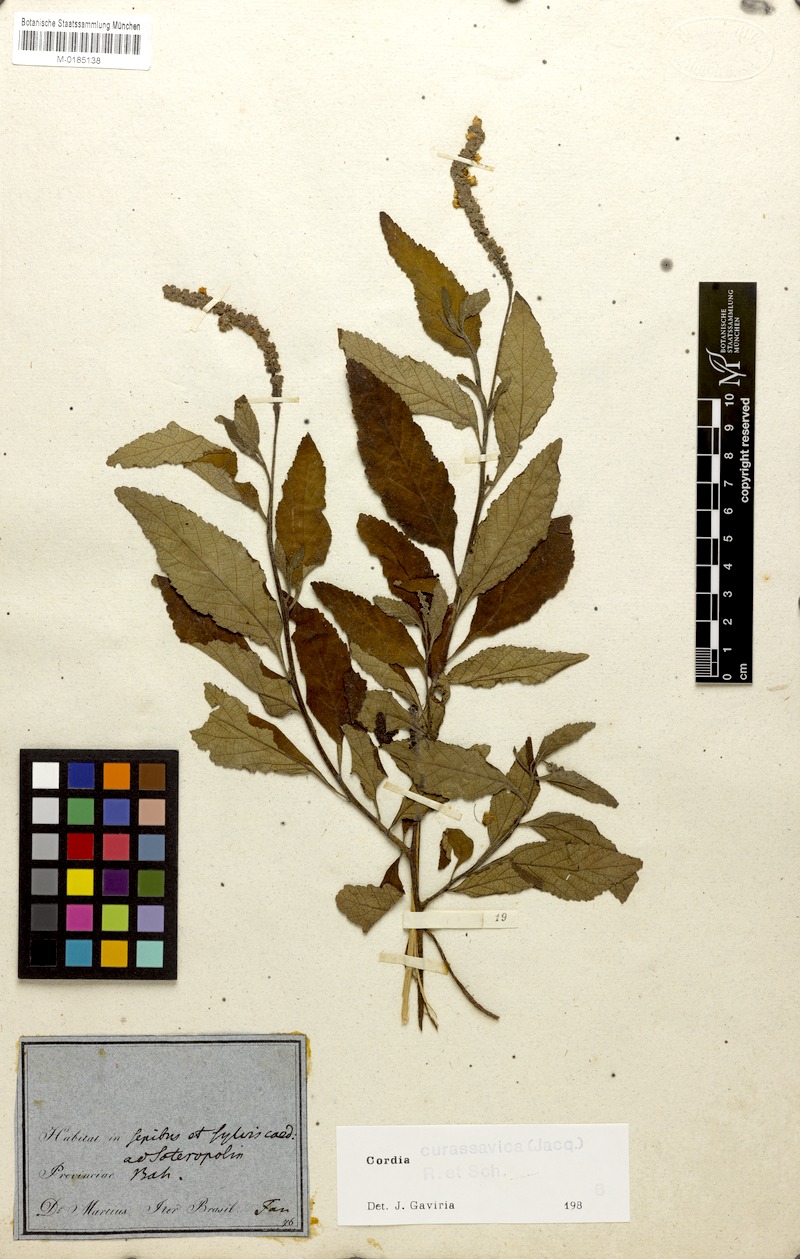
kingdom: Plantae
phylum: Tracheophyta
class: Magnoliopsida
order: Boraginales
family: Cordiaceae
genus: Varronia
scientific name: Varronia curassavica
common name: Black sage
